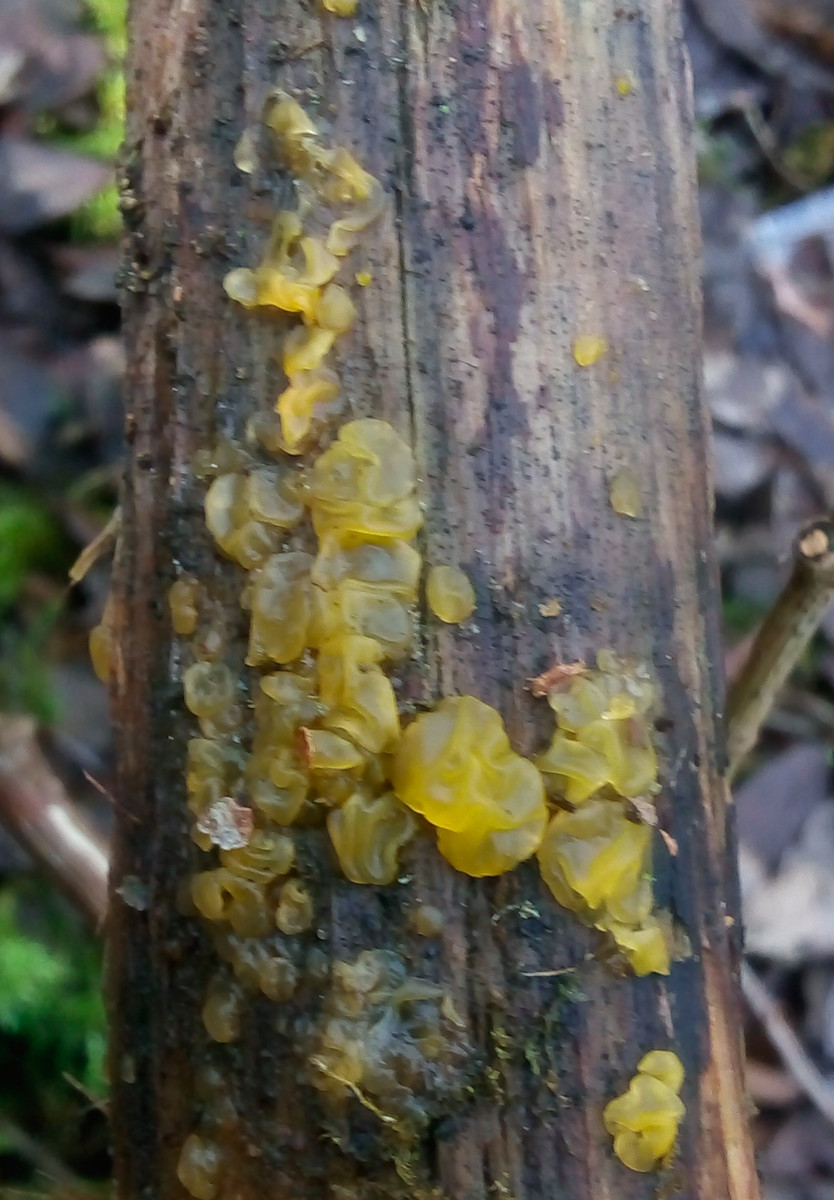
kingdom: Fungi
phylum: Basidiomycota
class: Dacrymycetes
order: Dacrymycetales
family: Dacrymycetaceae
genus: Dacrymyces
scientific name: Dacrymyces lacrymalis
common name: rynket tåresvamp
